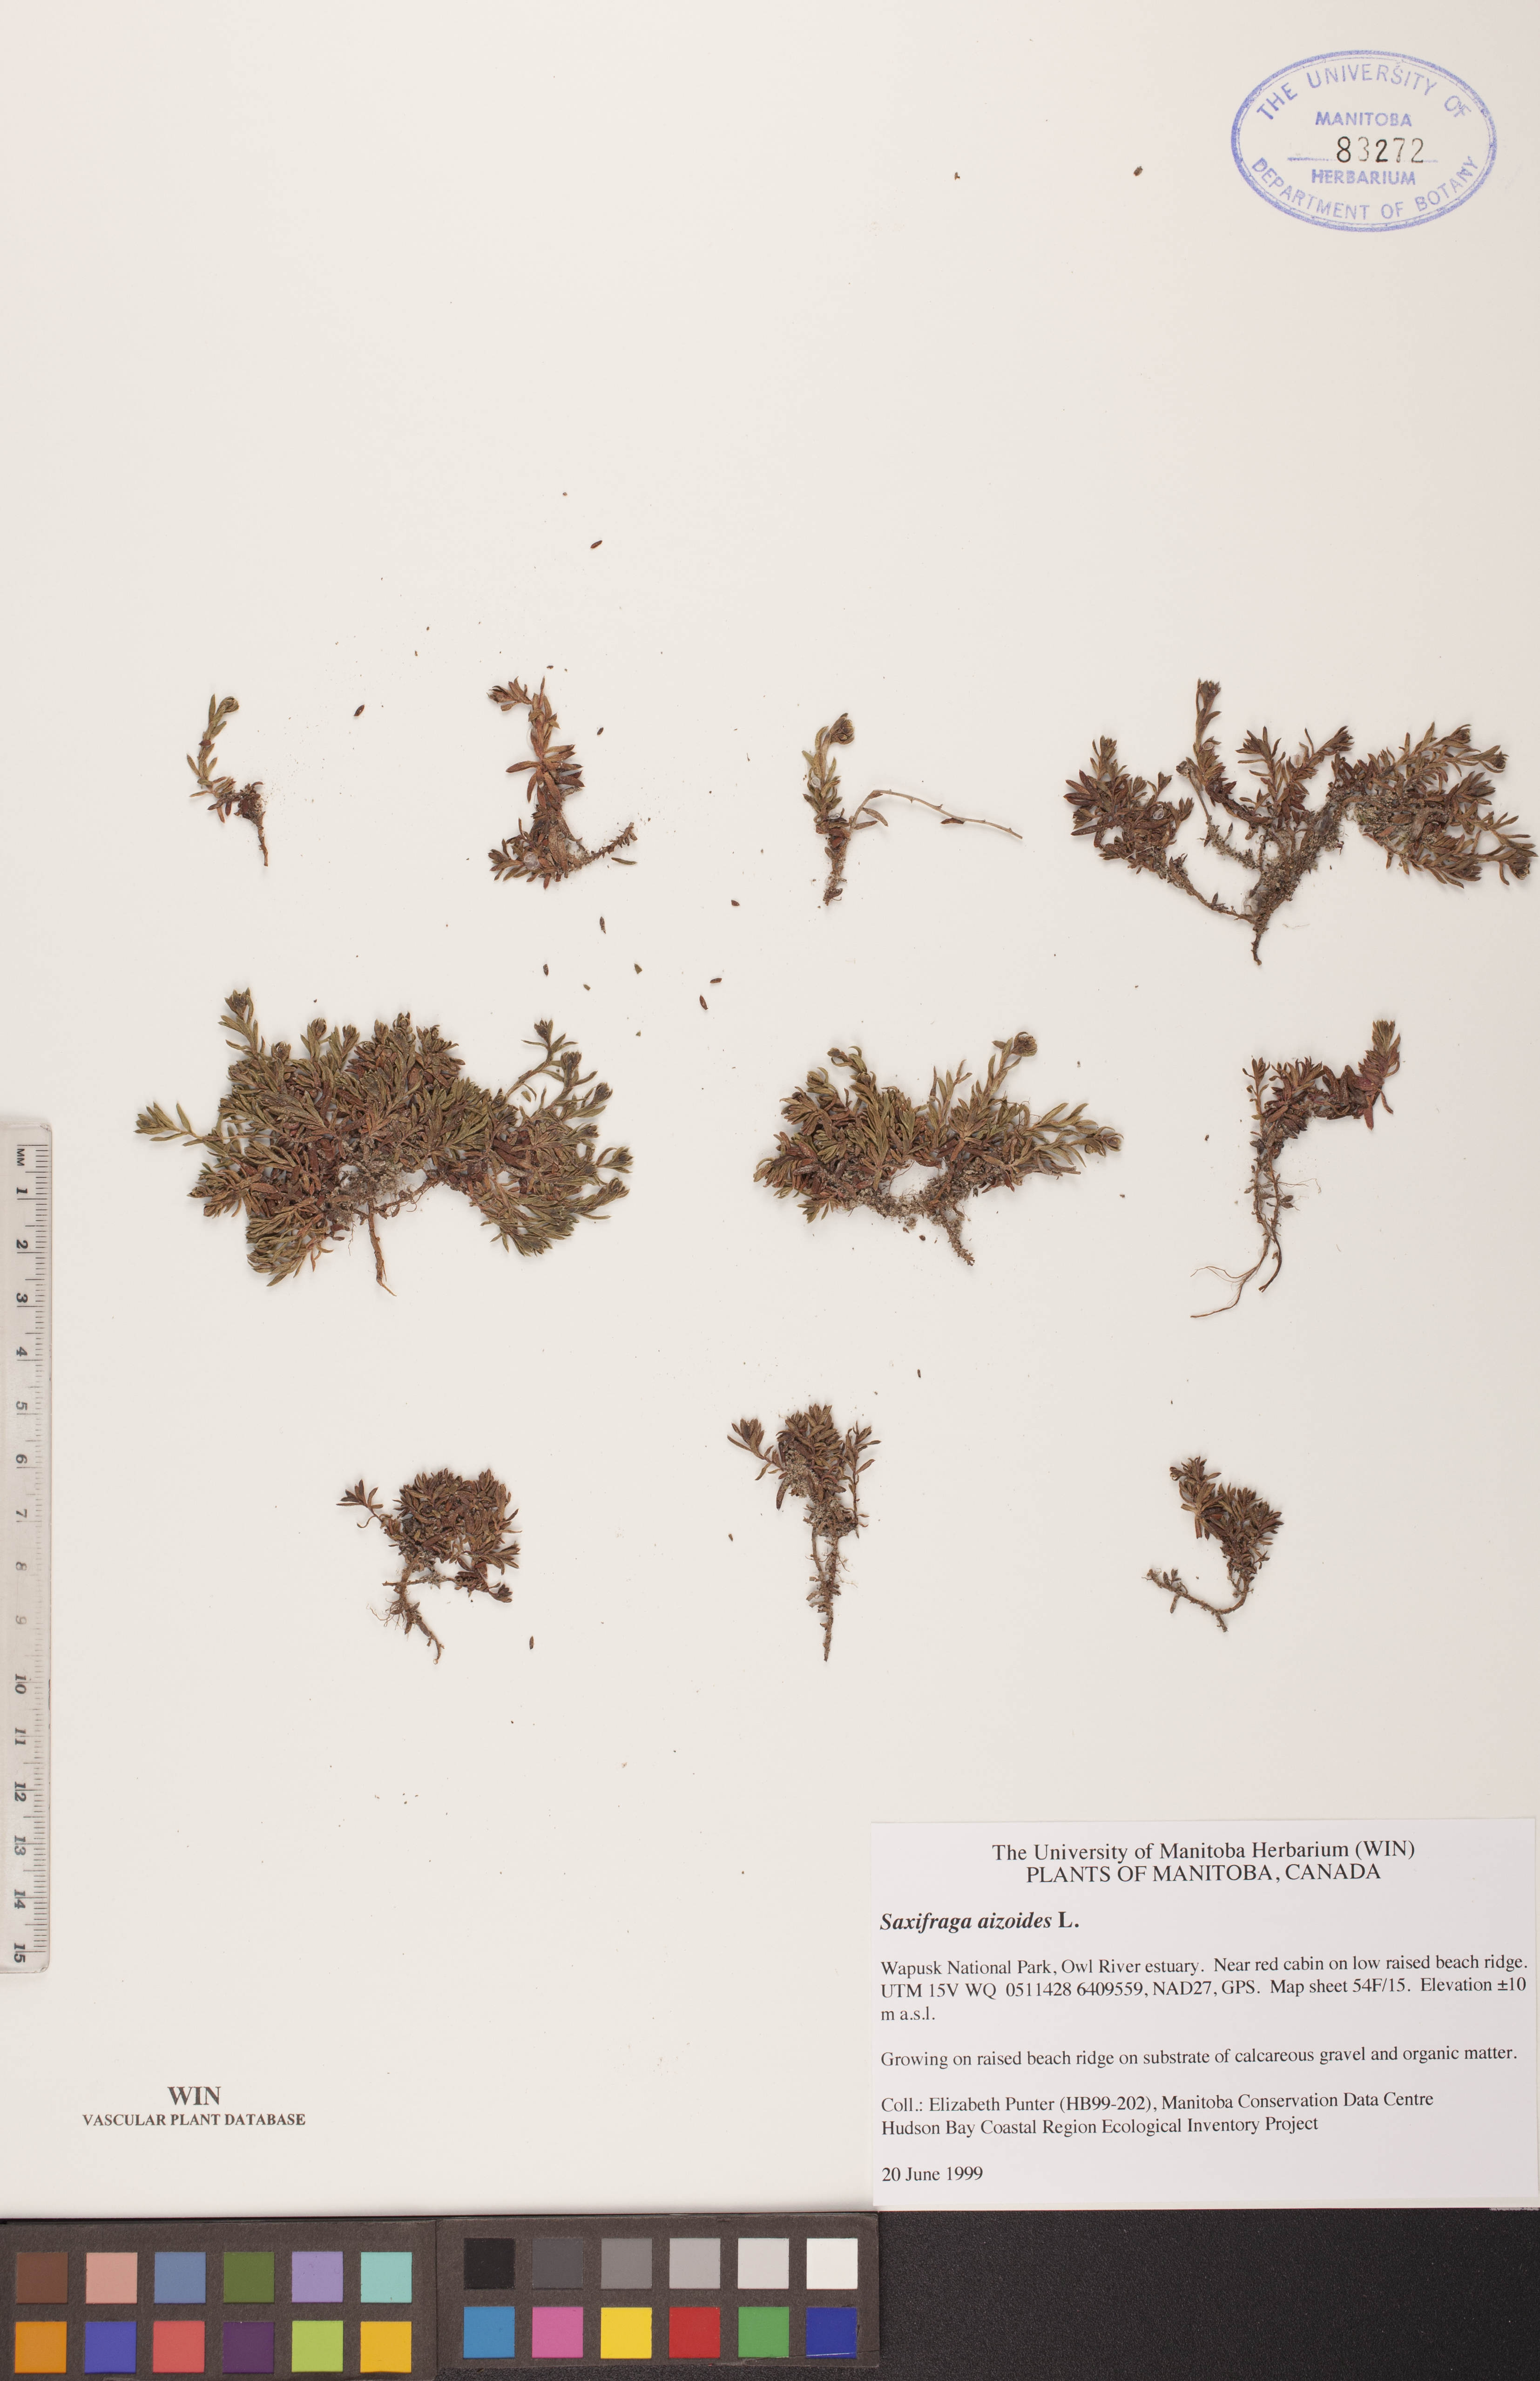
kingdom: Plantae
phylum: Tracheophyta
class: Magnoliopsida
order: Saxifragales
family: Saxifragaceae
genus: Saxifraga
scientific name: Saxifraga aizoides
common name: Yellow mountain saxifrage
